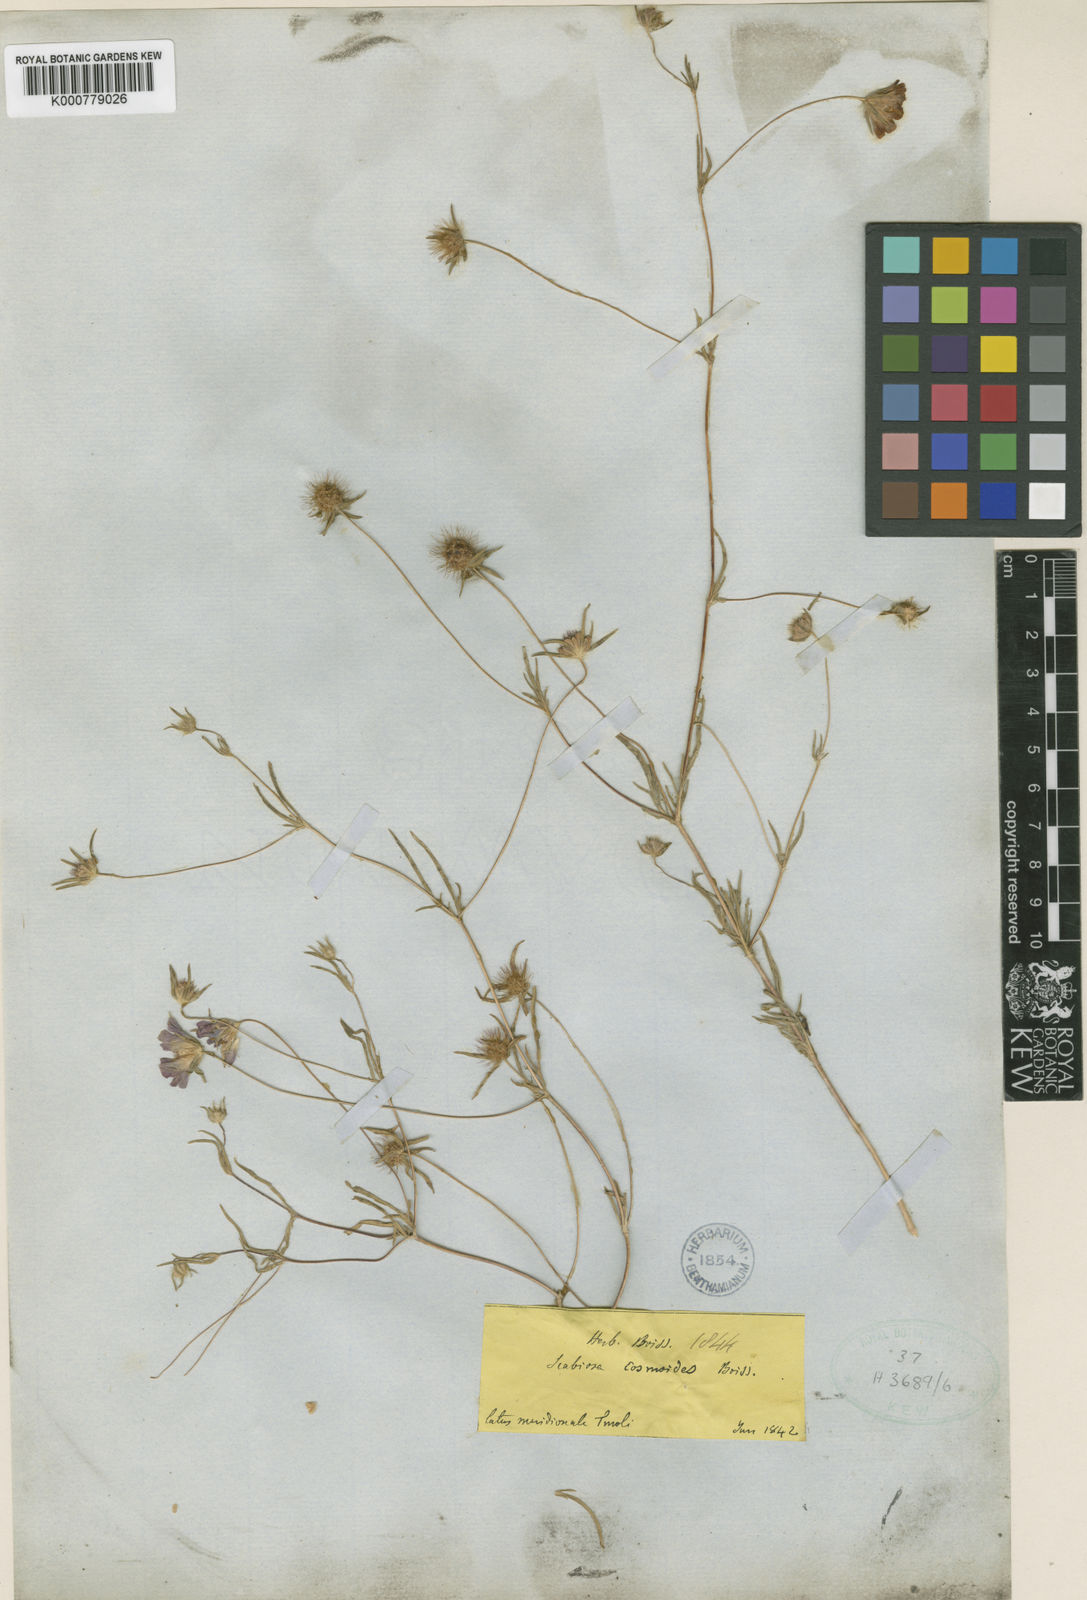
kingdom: Plantae
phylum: Tracheophyta
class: Magnoliopsida
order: Dipsacales
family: Caprifoliaceae
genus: Lomelosia
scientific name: Lomelosia cosmoides
